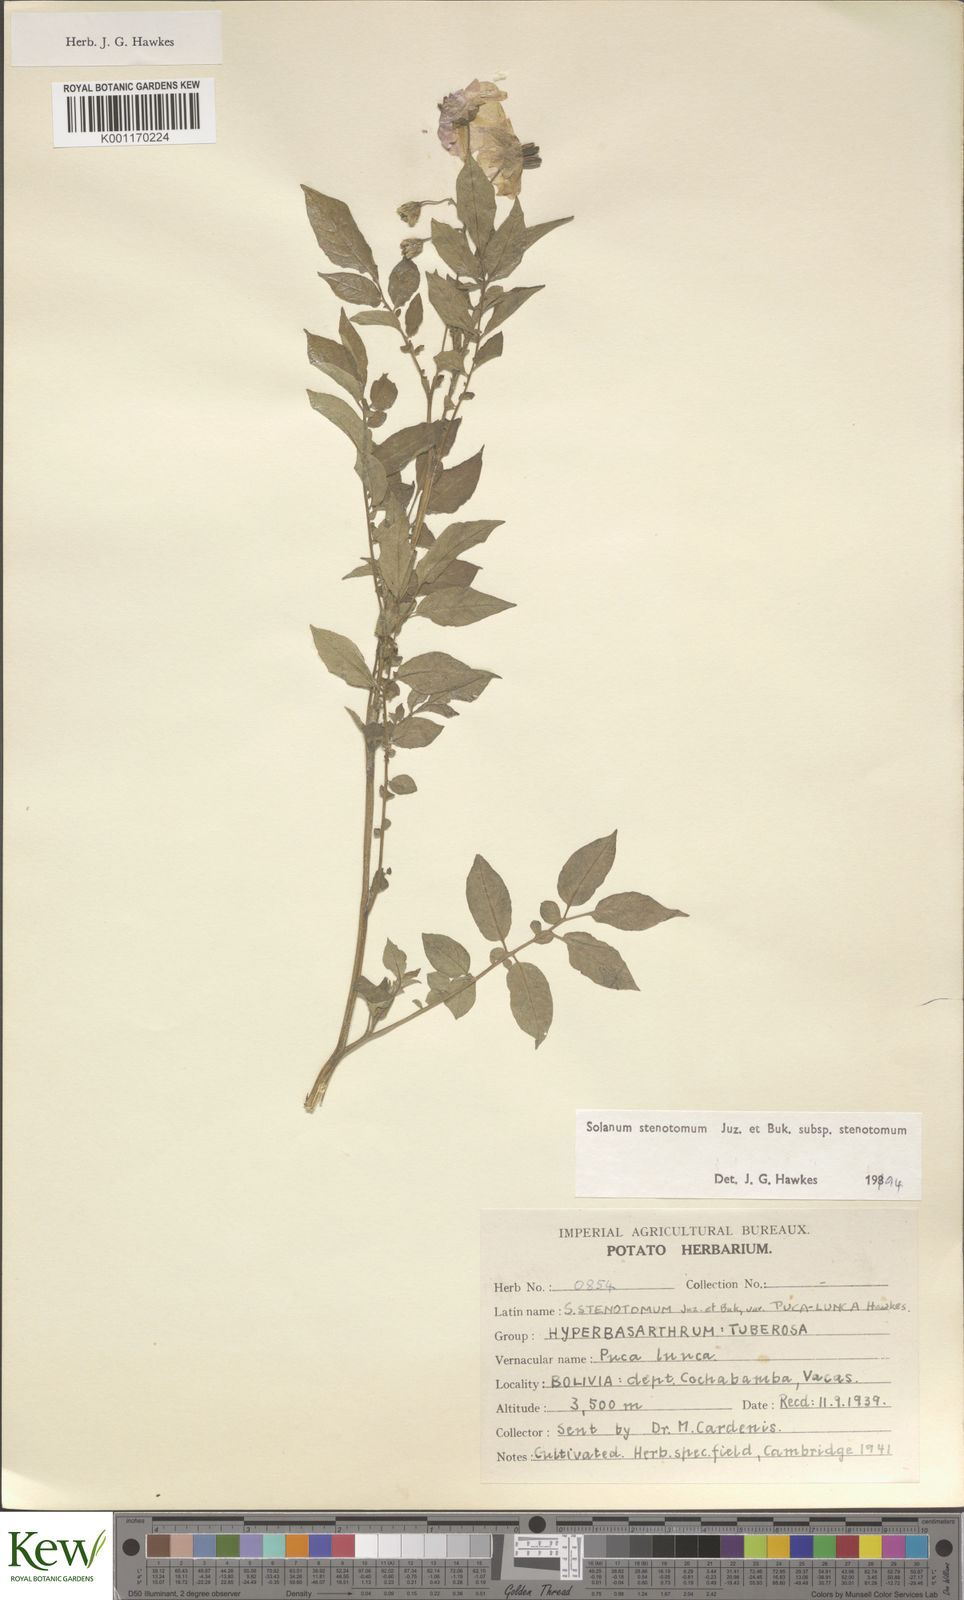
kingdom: Plantae
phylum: Tracheophyta
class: Magnoliopsida
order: Solanales
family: Solanaceae
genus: Solanum
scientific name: Solanum tuberosum
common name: Potato
